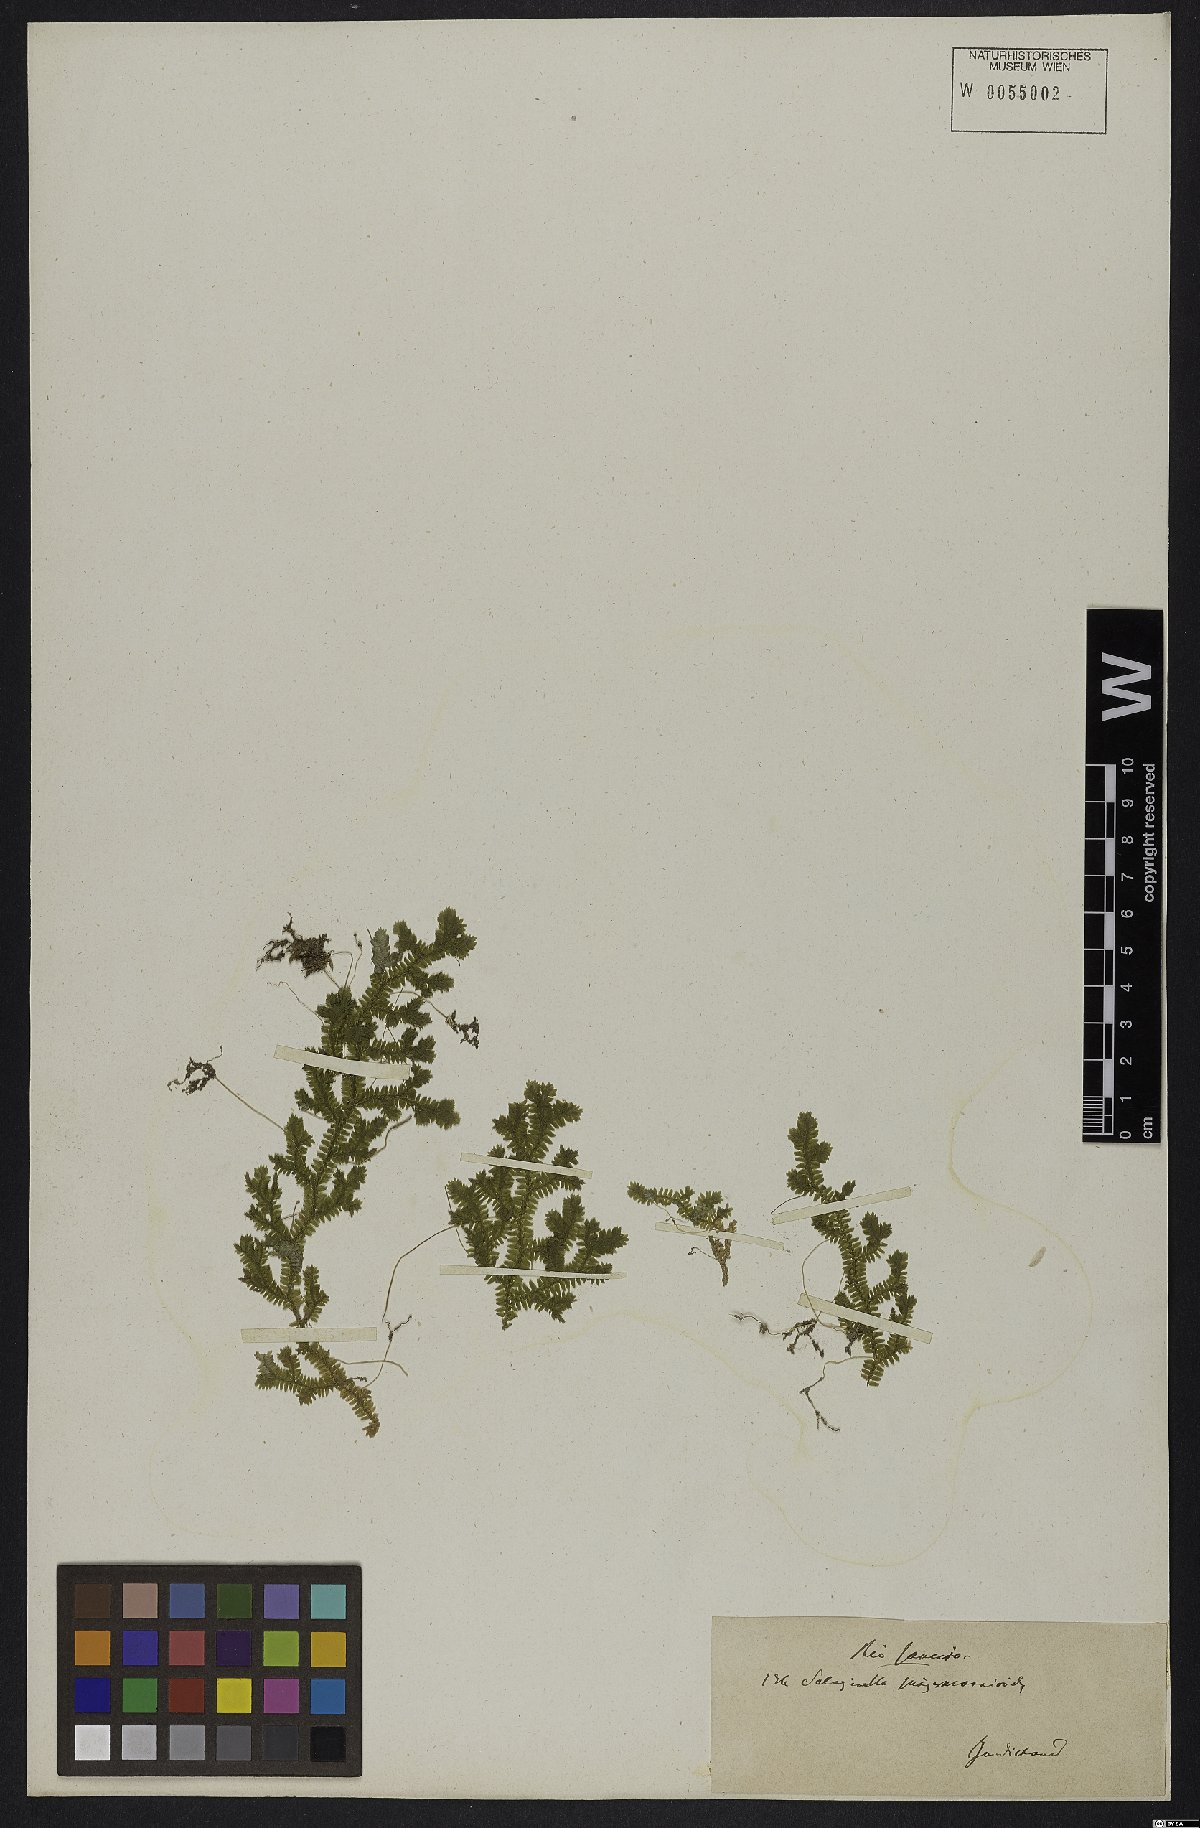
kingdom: Plantae
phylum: Tracheophyta
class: Lycopodiopsida
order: Selaginellales
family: Selaginellaceae
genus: Selaginella
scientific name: Selaginella jungermannioides
